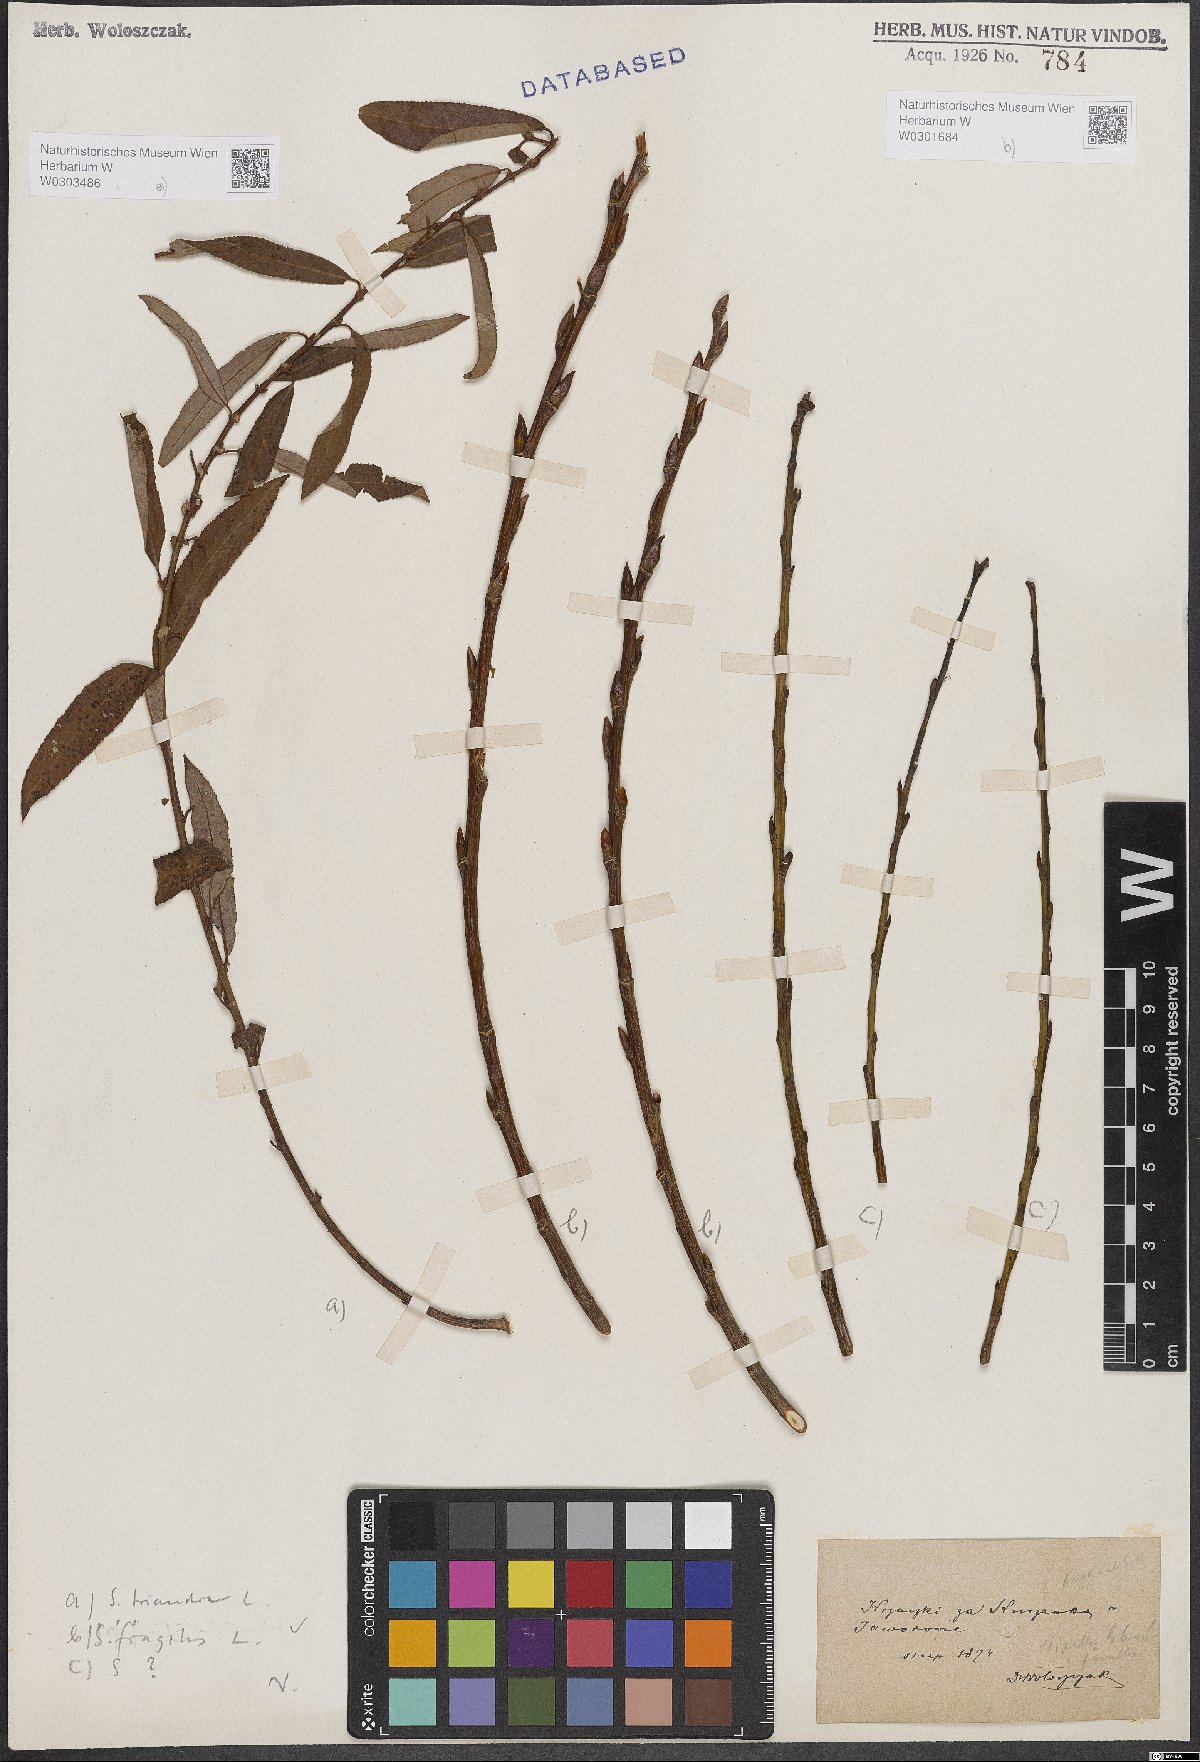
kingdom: Plantae
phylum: Tracheophyta
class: Magnoliopsida
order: Malpighiales
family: Salicaceae
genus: Salix
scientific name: Salix fragilis
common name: Crack willow
